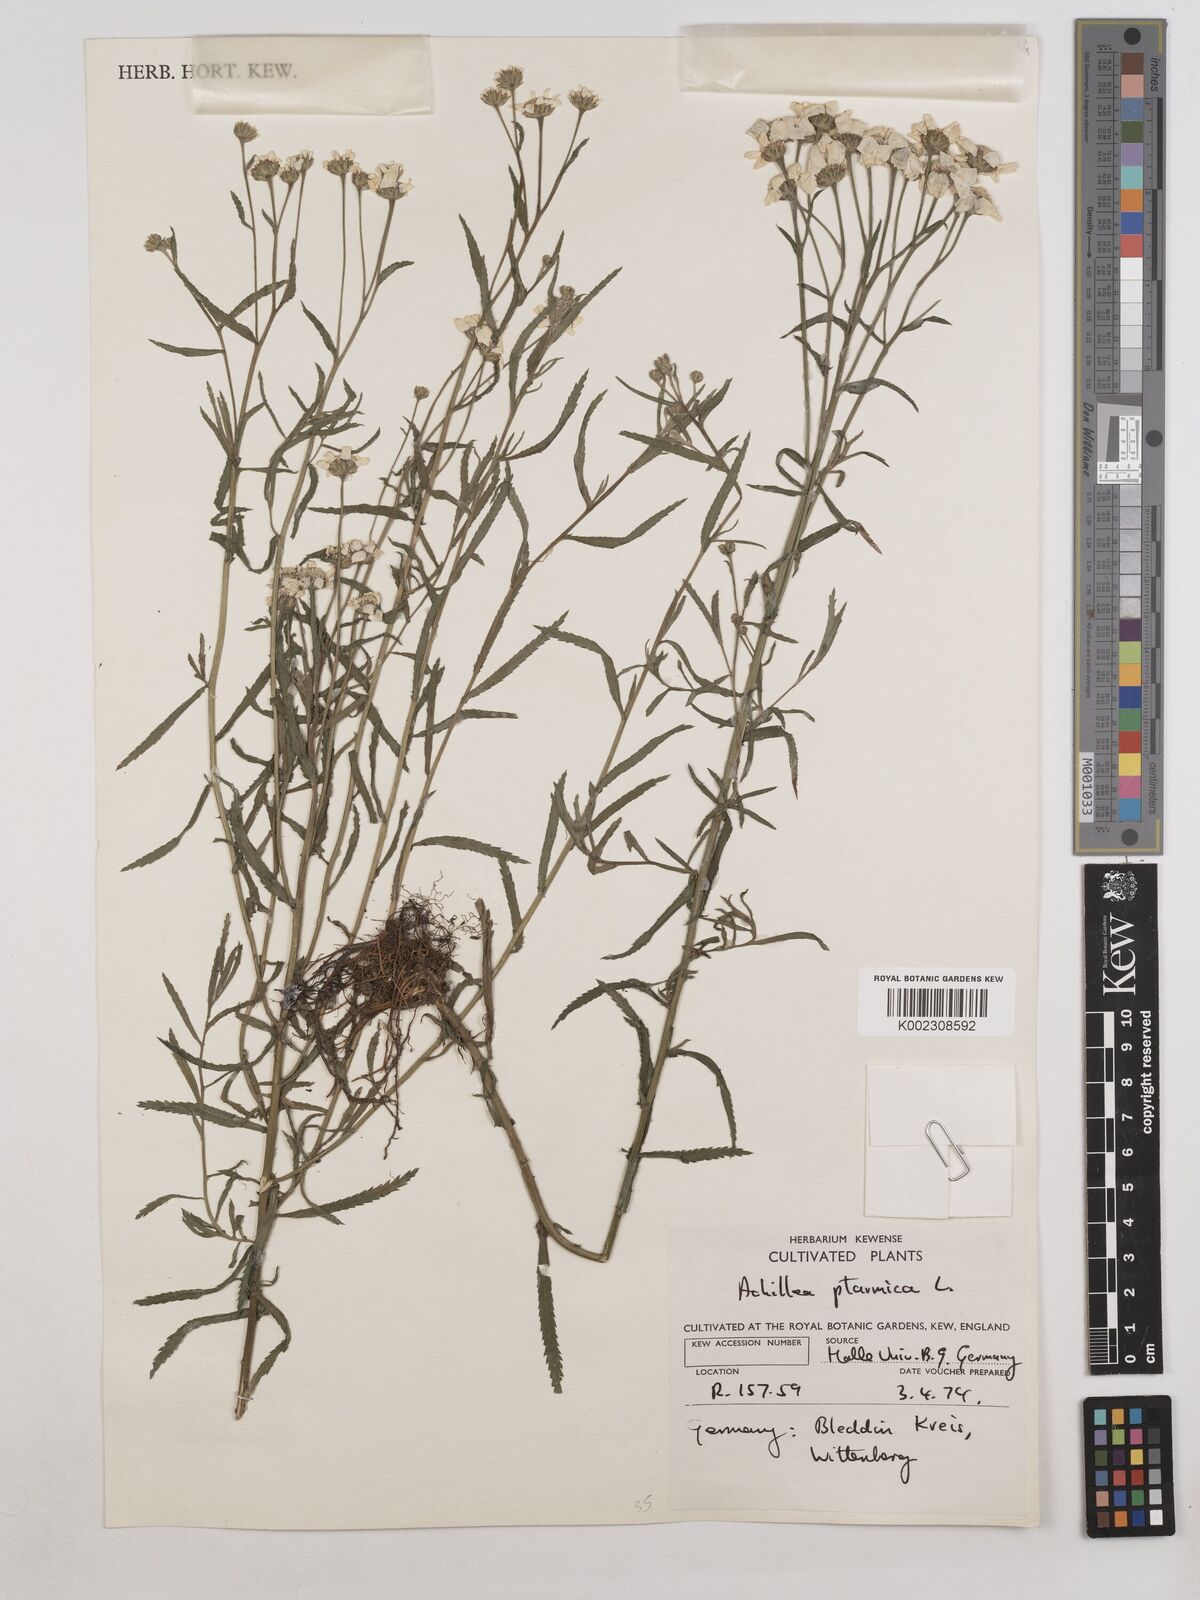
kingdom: Plantae
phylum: Tracheophyta
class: Magnoliopsida
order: Asterales
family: Asteraceae
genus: Achillea
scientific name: Achillea ptarmica
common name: Sneezeweed
